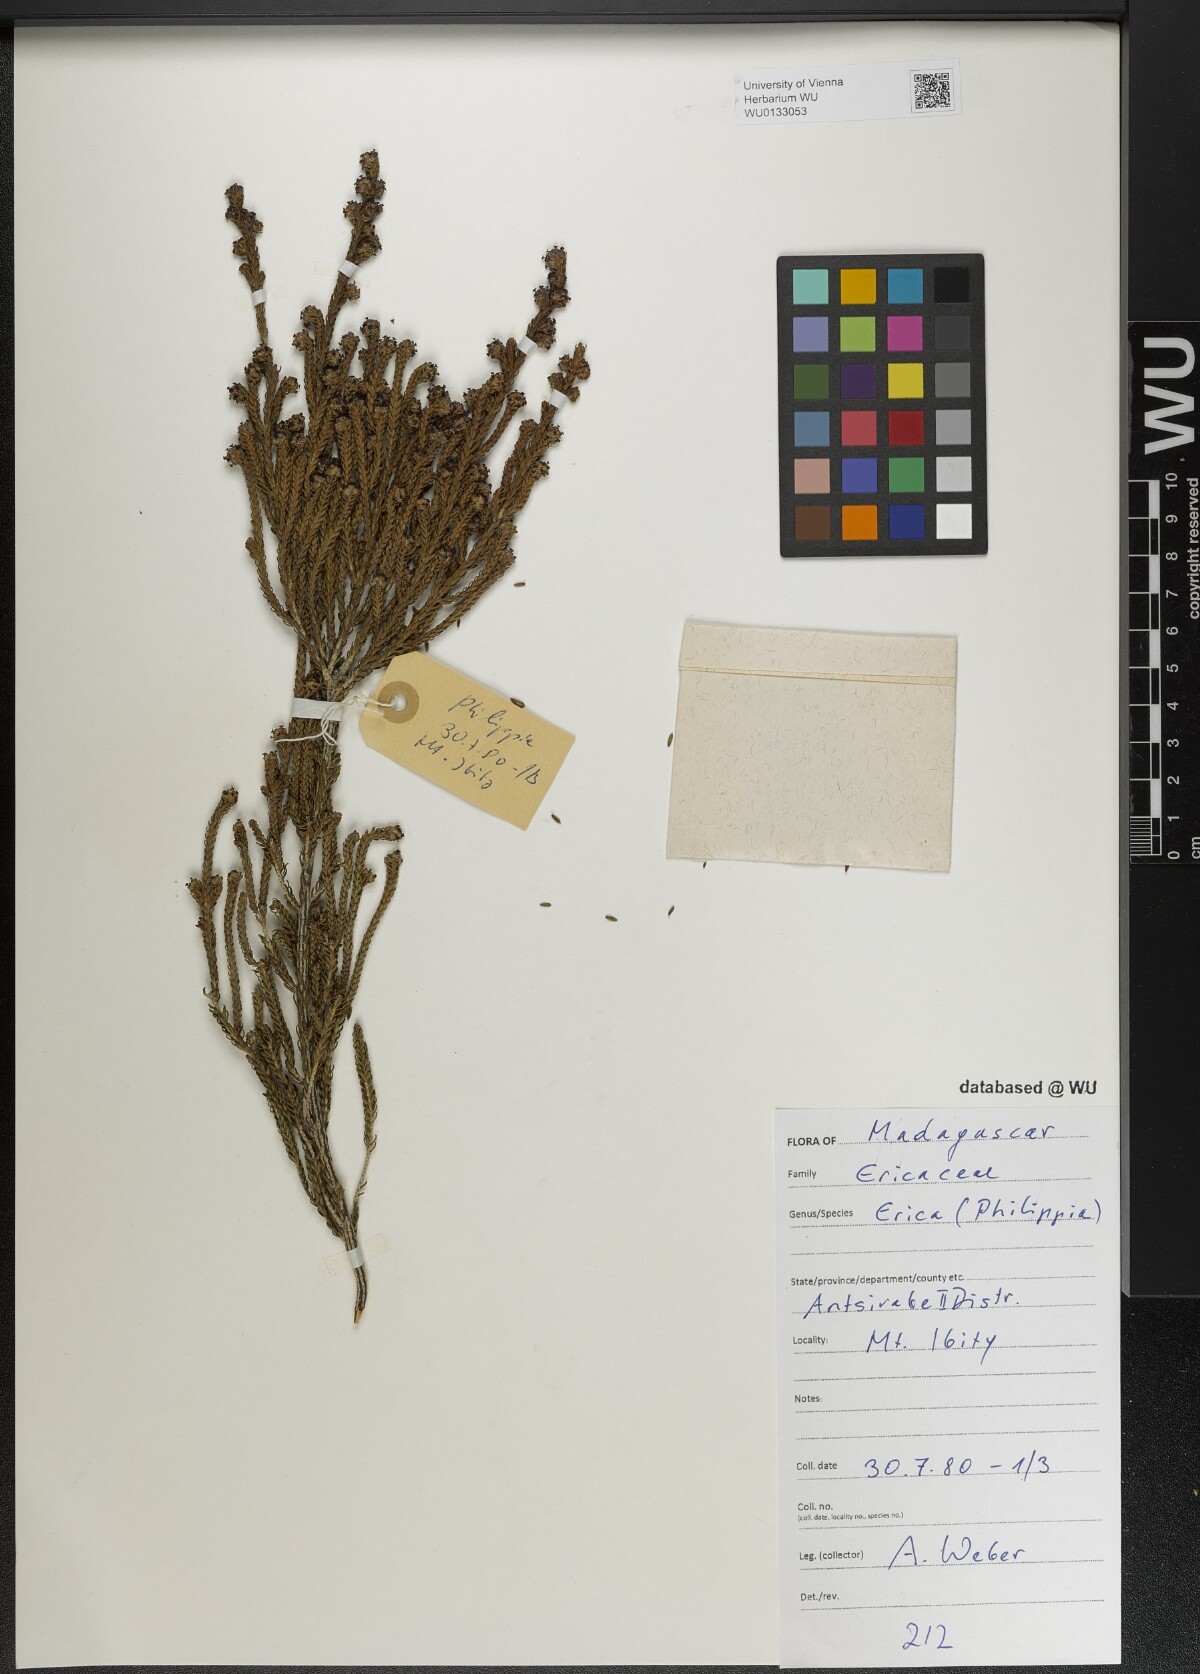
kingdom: Plantae
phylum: Tracheophyta
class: Magnoliopsida
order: Ericales
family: Ericaceae
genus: Erica
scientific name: Erica
